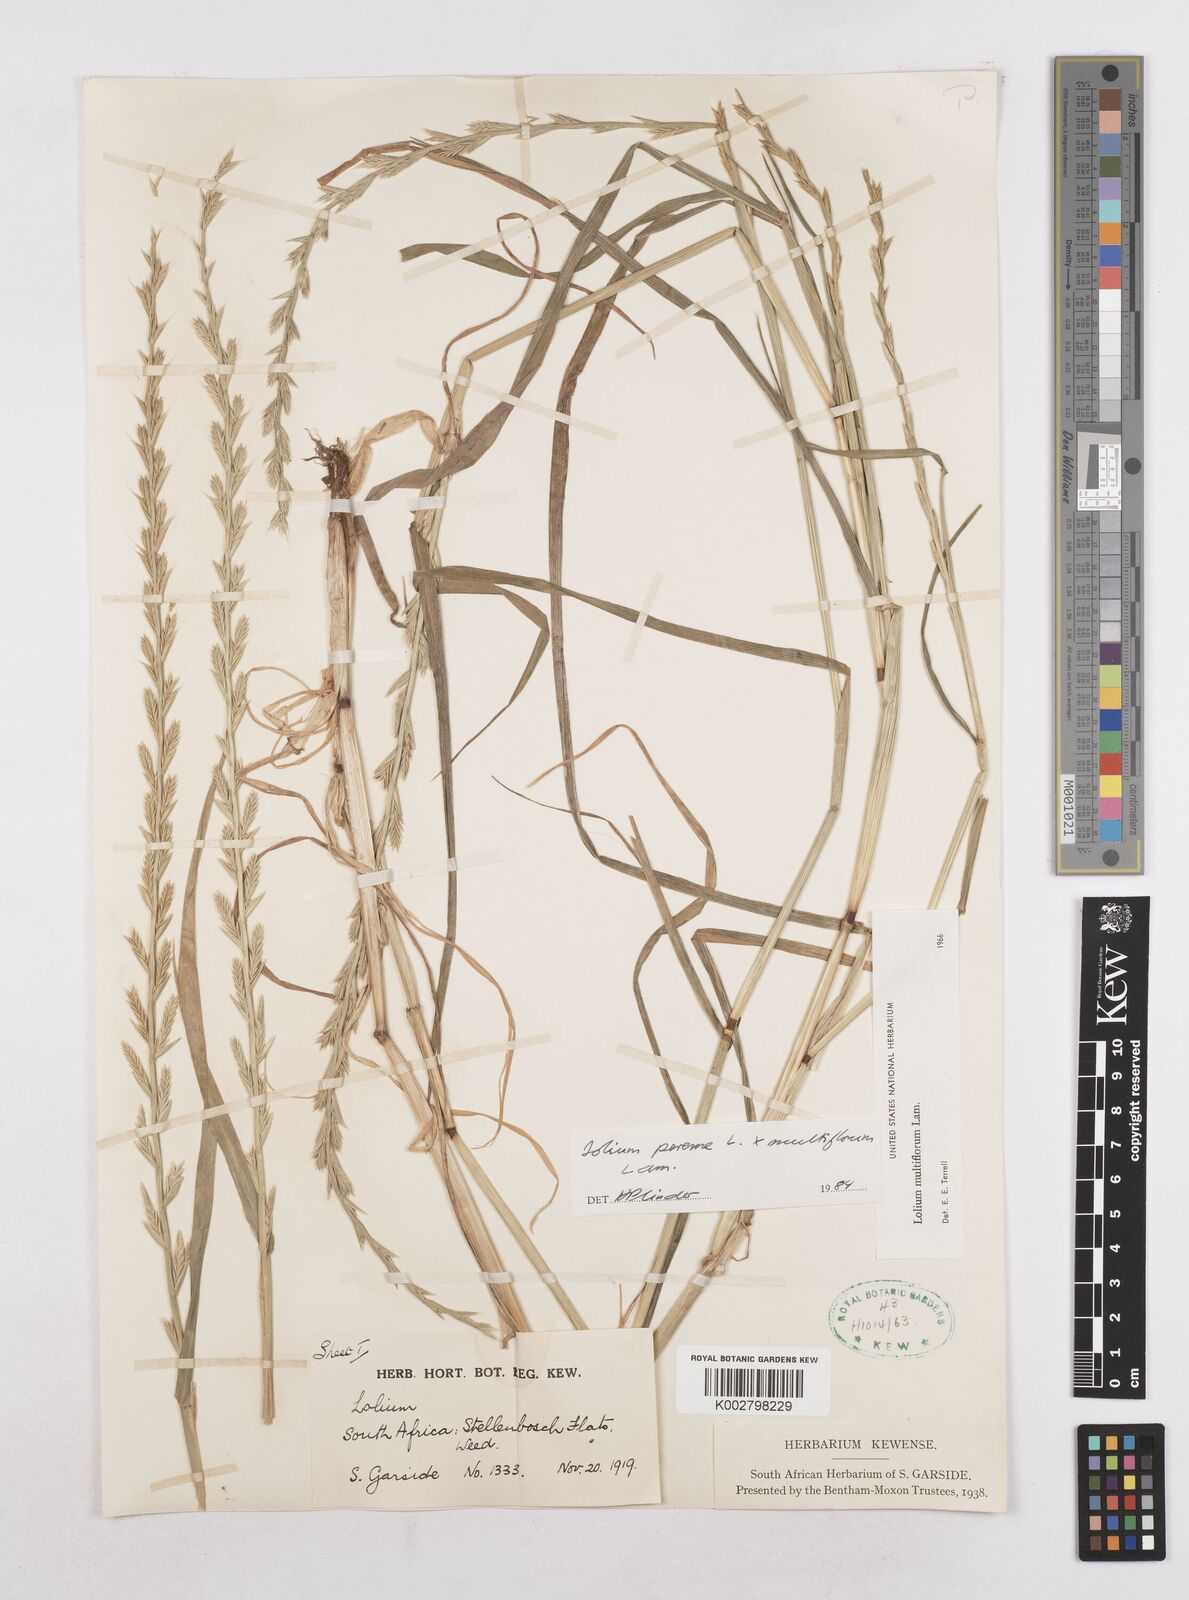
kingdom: Plantae
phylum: Tracheophyta
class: Liliopsida
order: Poales
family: Poaceae
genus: Lolium
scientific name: Lolium multiflorum
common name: Annual ryegrass
